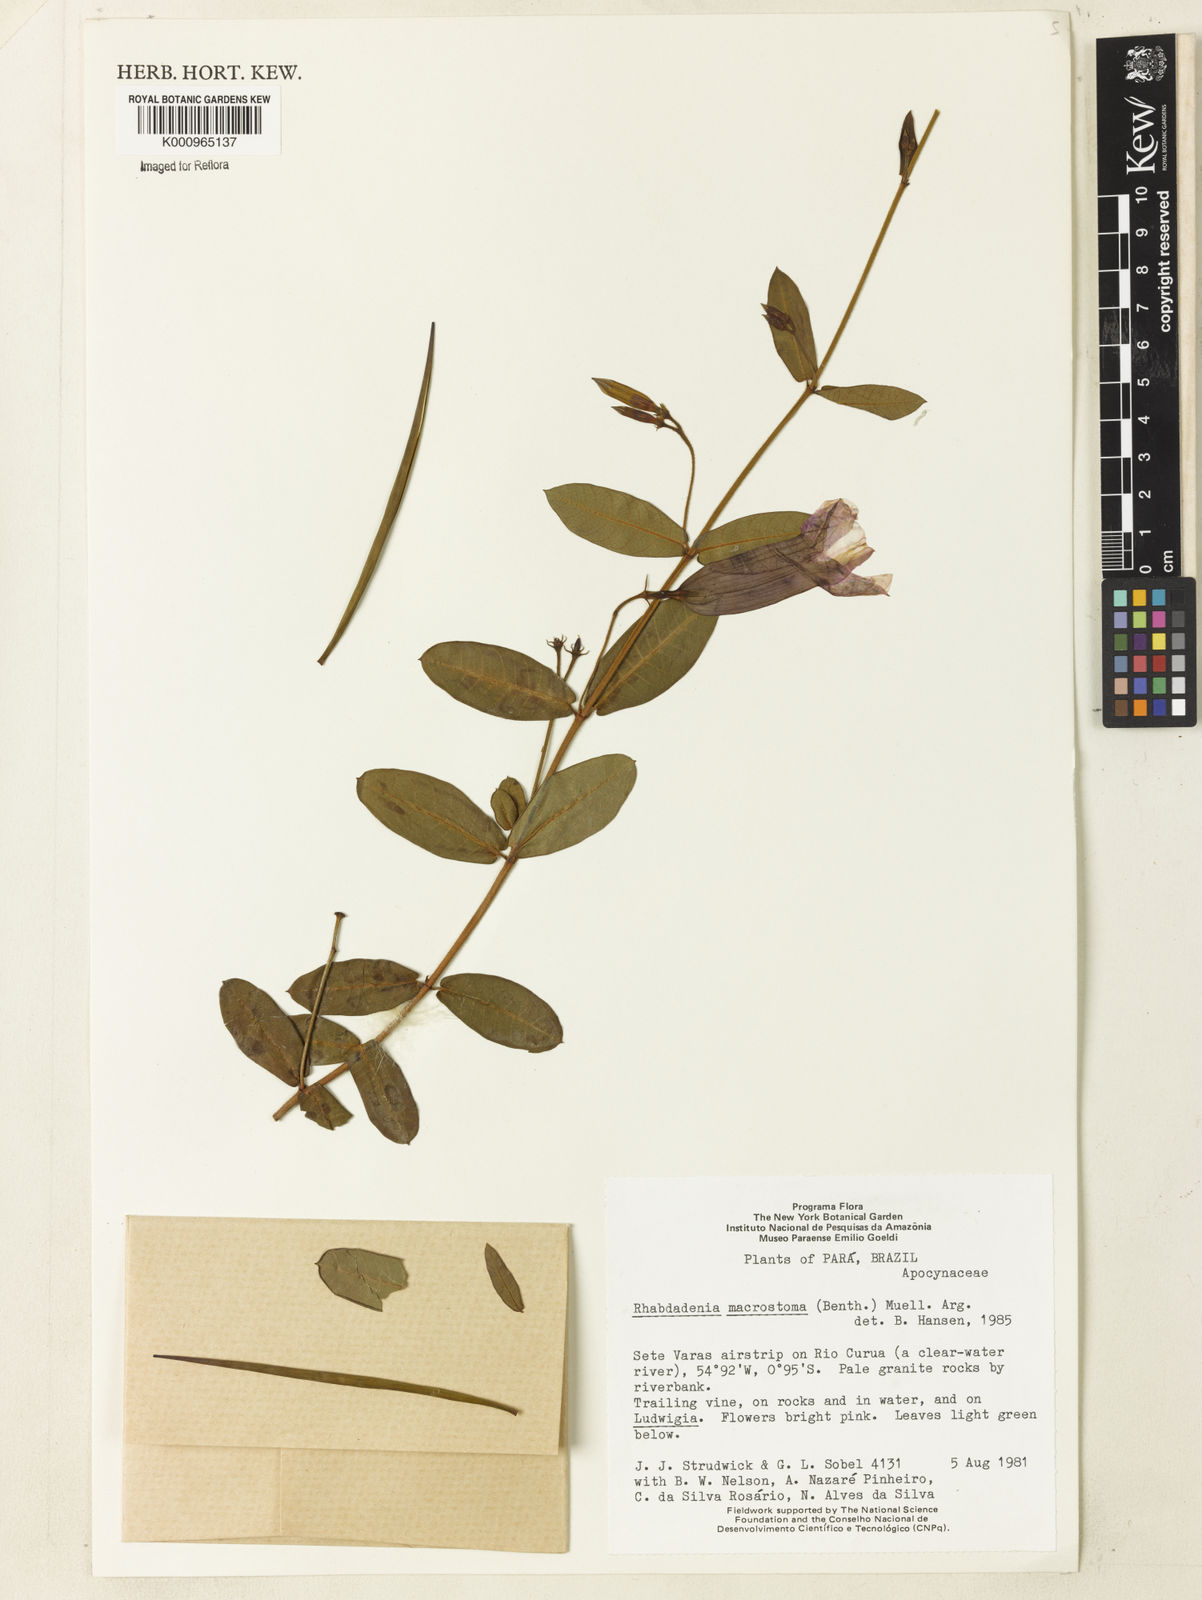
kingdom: Plantae
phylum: Tracheophyta
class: Magnoliopsida
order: Gentianales
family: Apocynaceae
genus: Rhabdadenia
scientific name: Rhabdadenia madida
